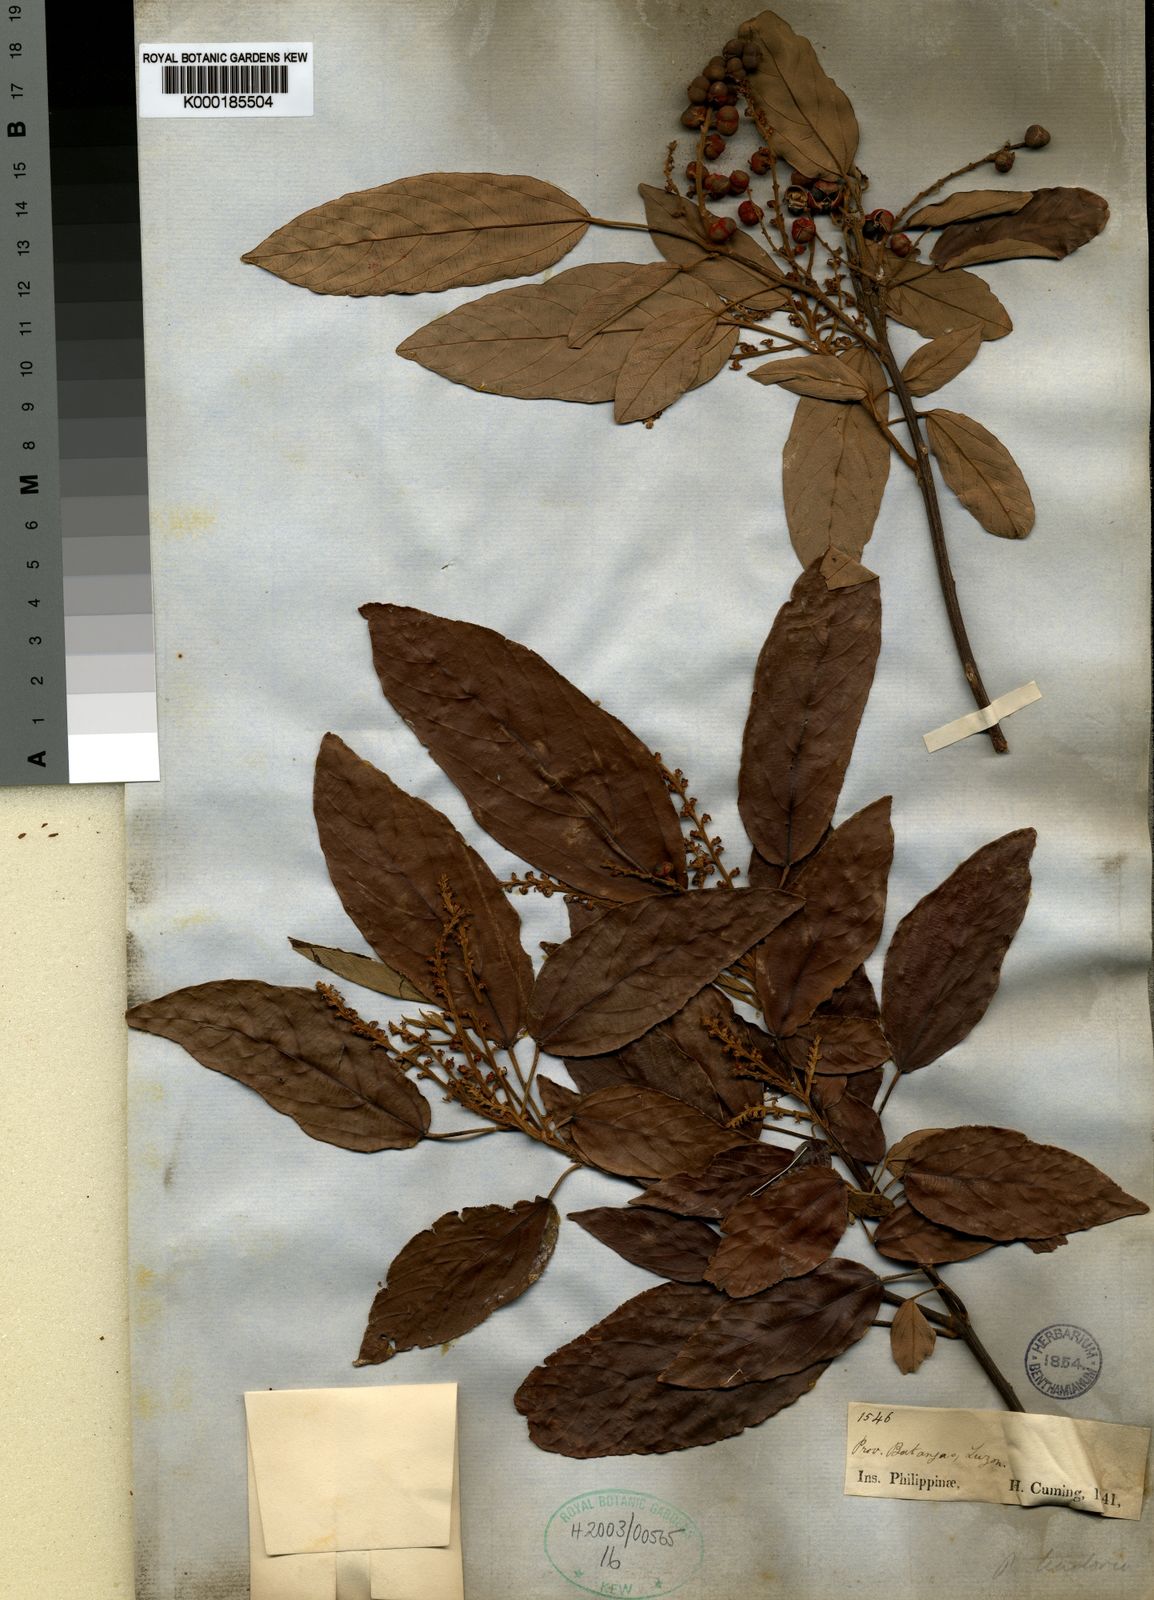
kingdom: Plantae
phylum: Tracheophyta
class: Magnoliopsida
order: Malpighiales
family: Euphorbiaceae
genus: Mallotus
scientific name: Mallotus philippensis
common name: Kamala tree
